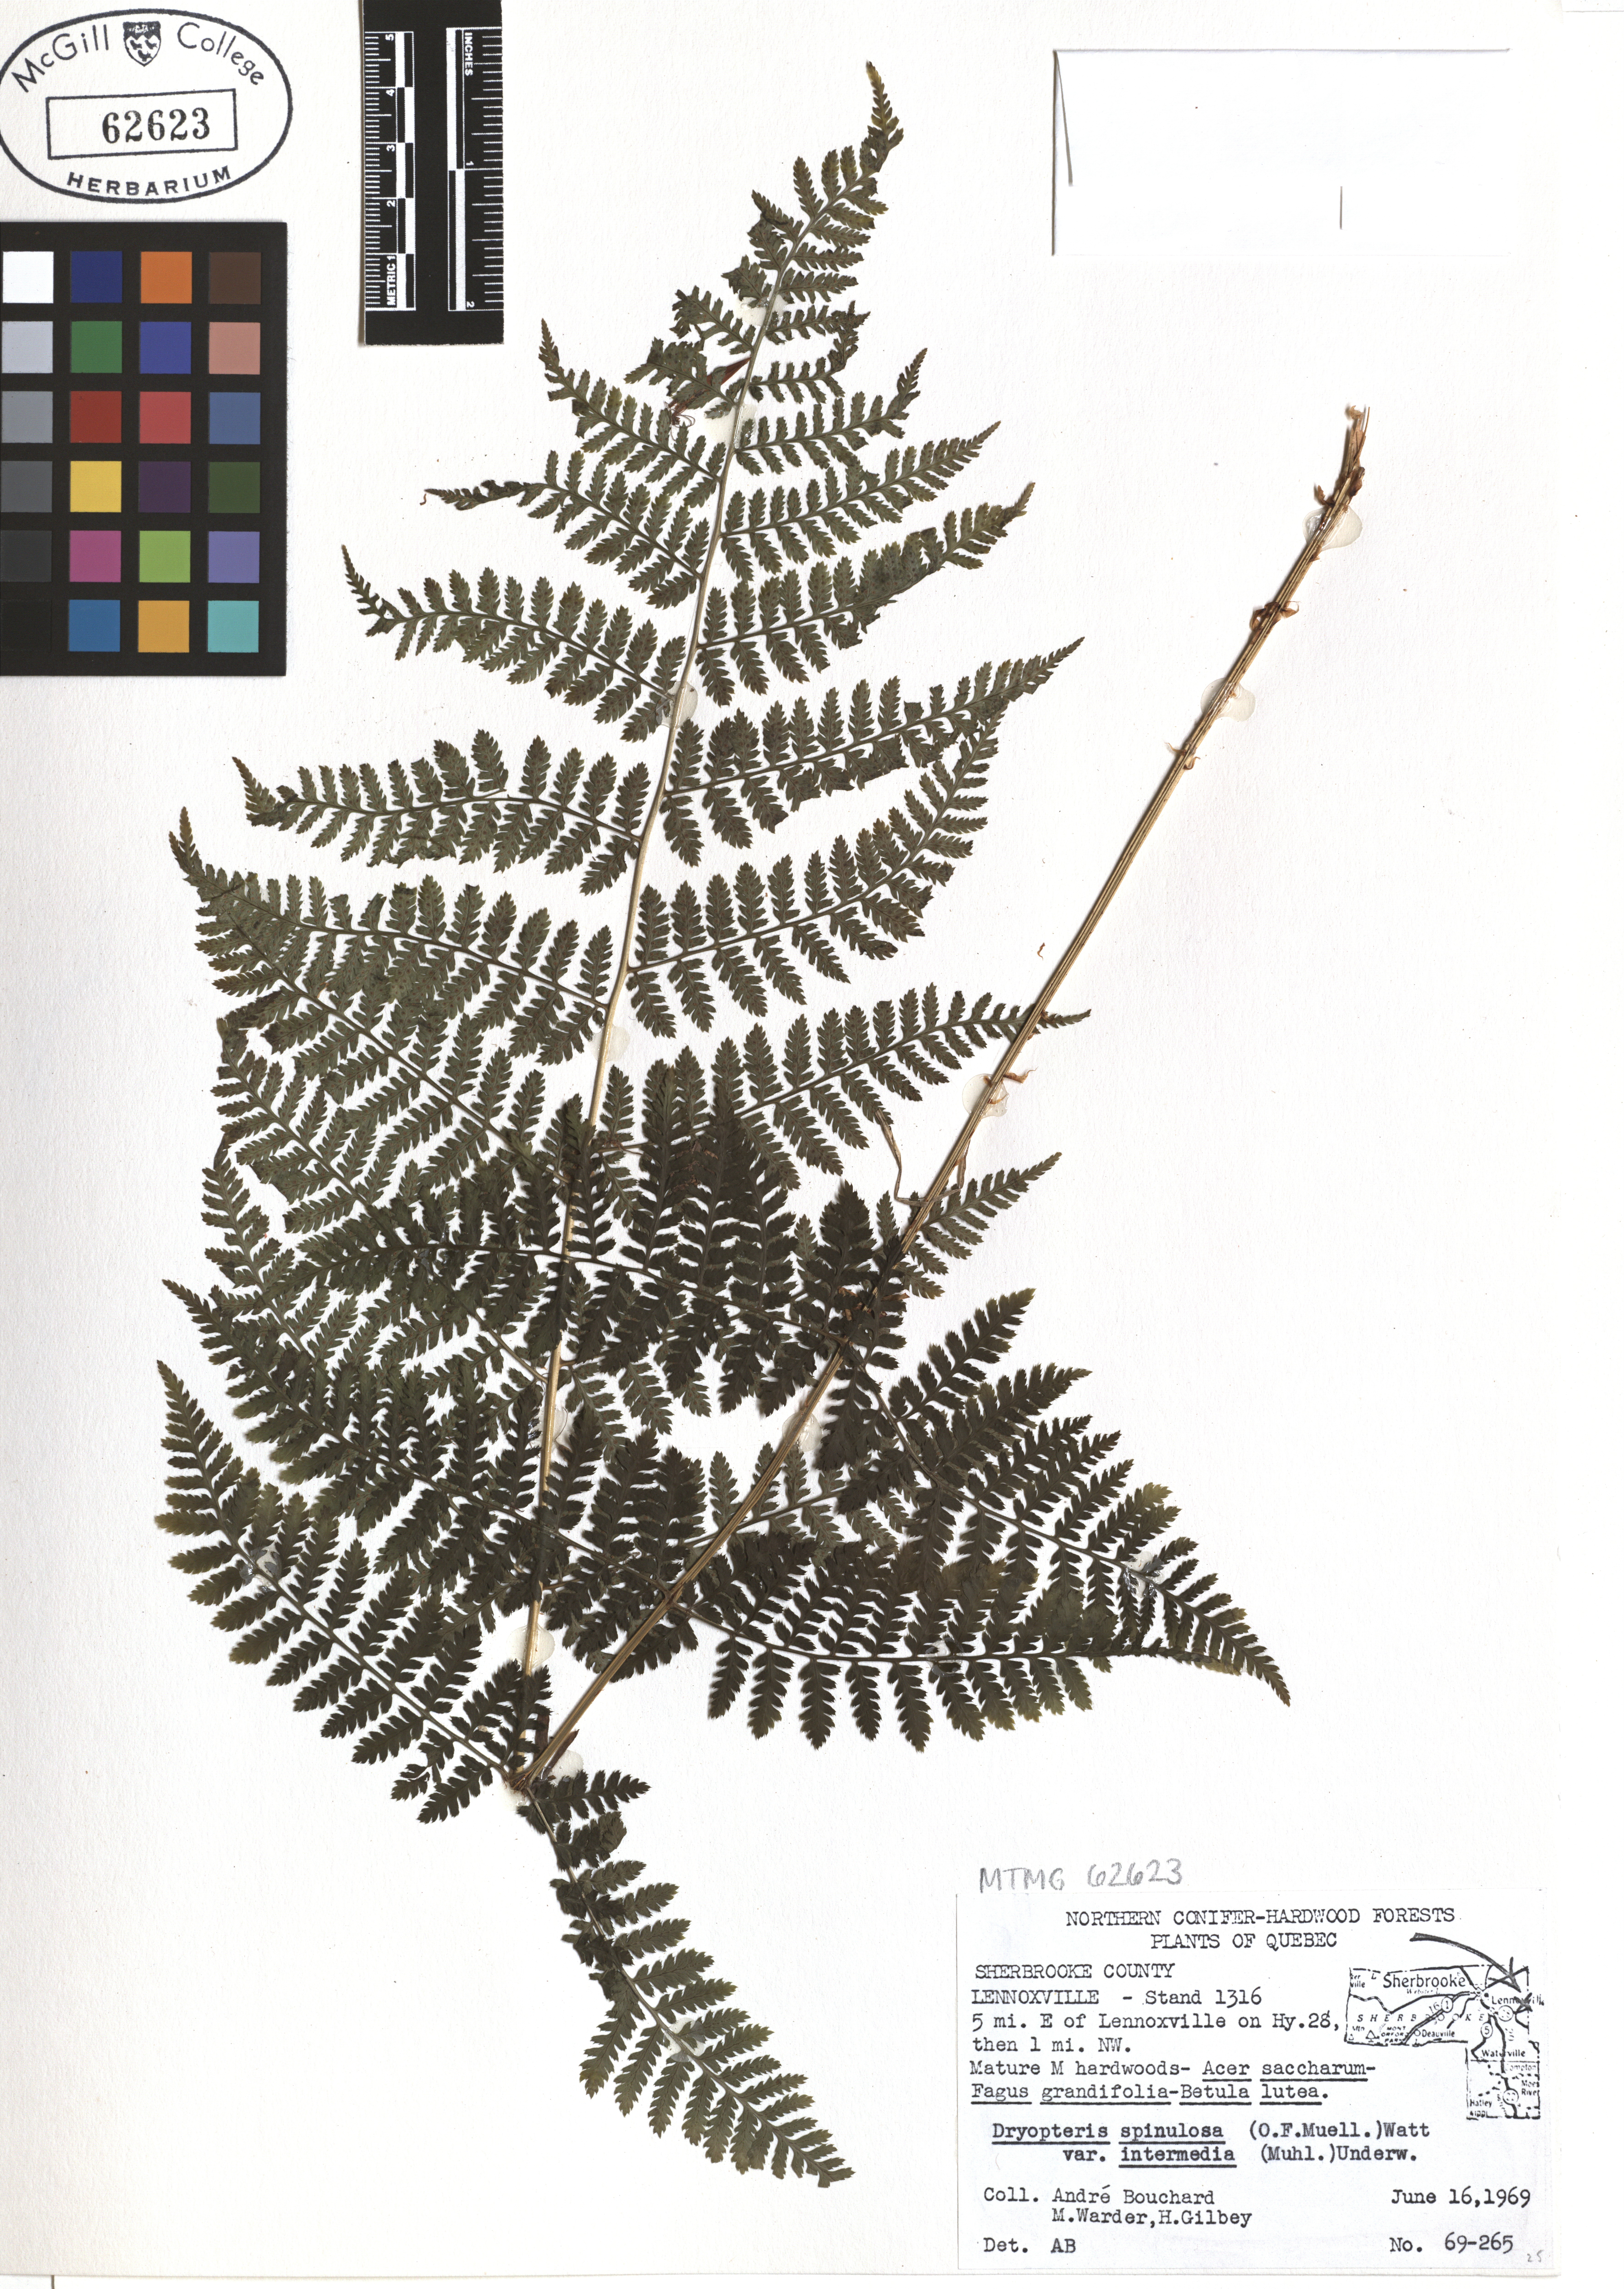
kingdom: Plantae
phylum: Tracheophyta
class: Polypodiopsida
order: Polypodiales
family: Dryopteridaceae
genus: Dryopteris
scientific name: Dryopteris intermedia
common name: Evergreen wood fern
